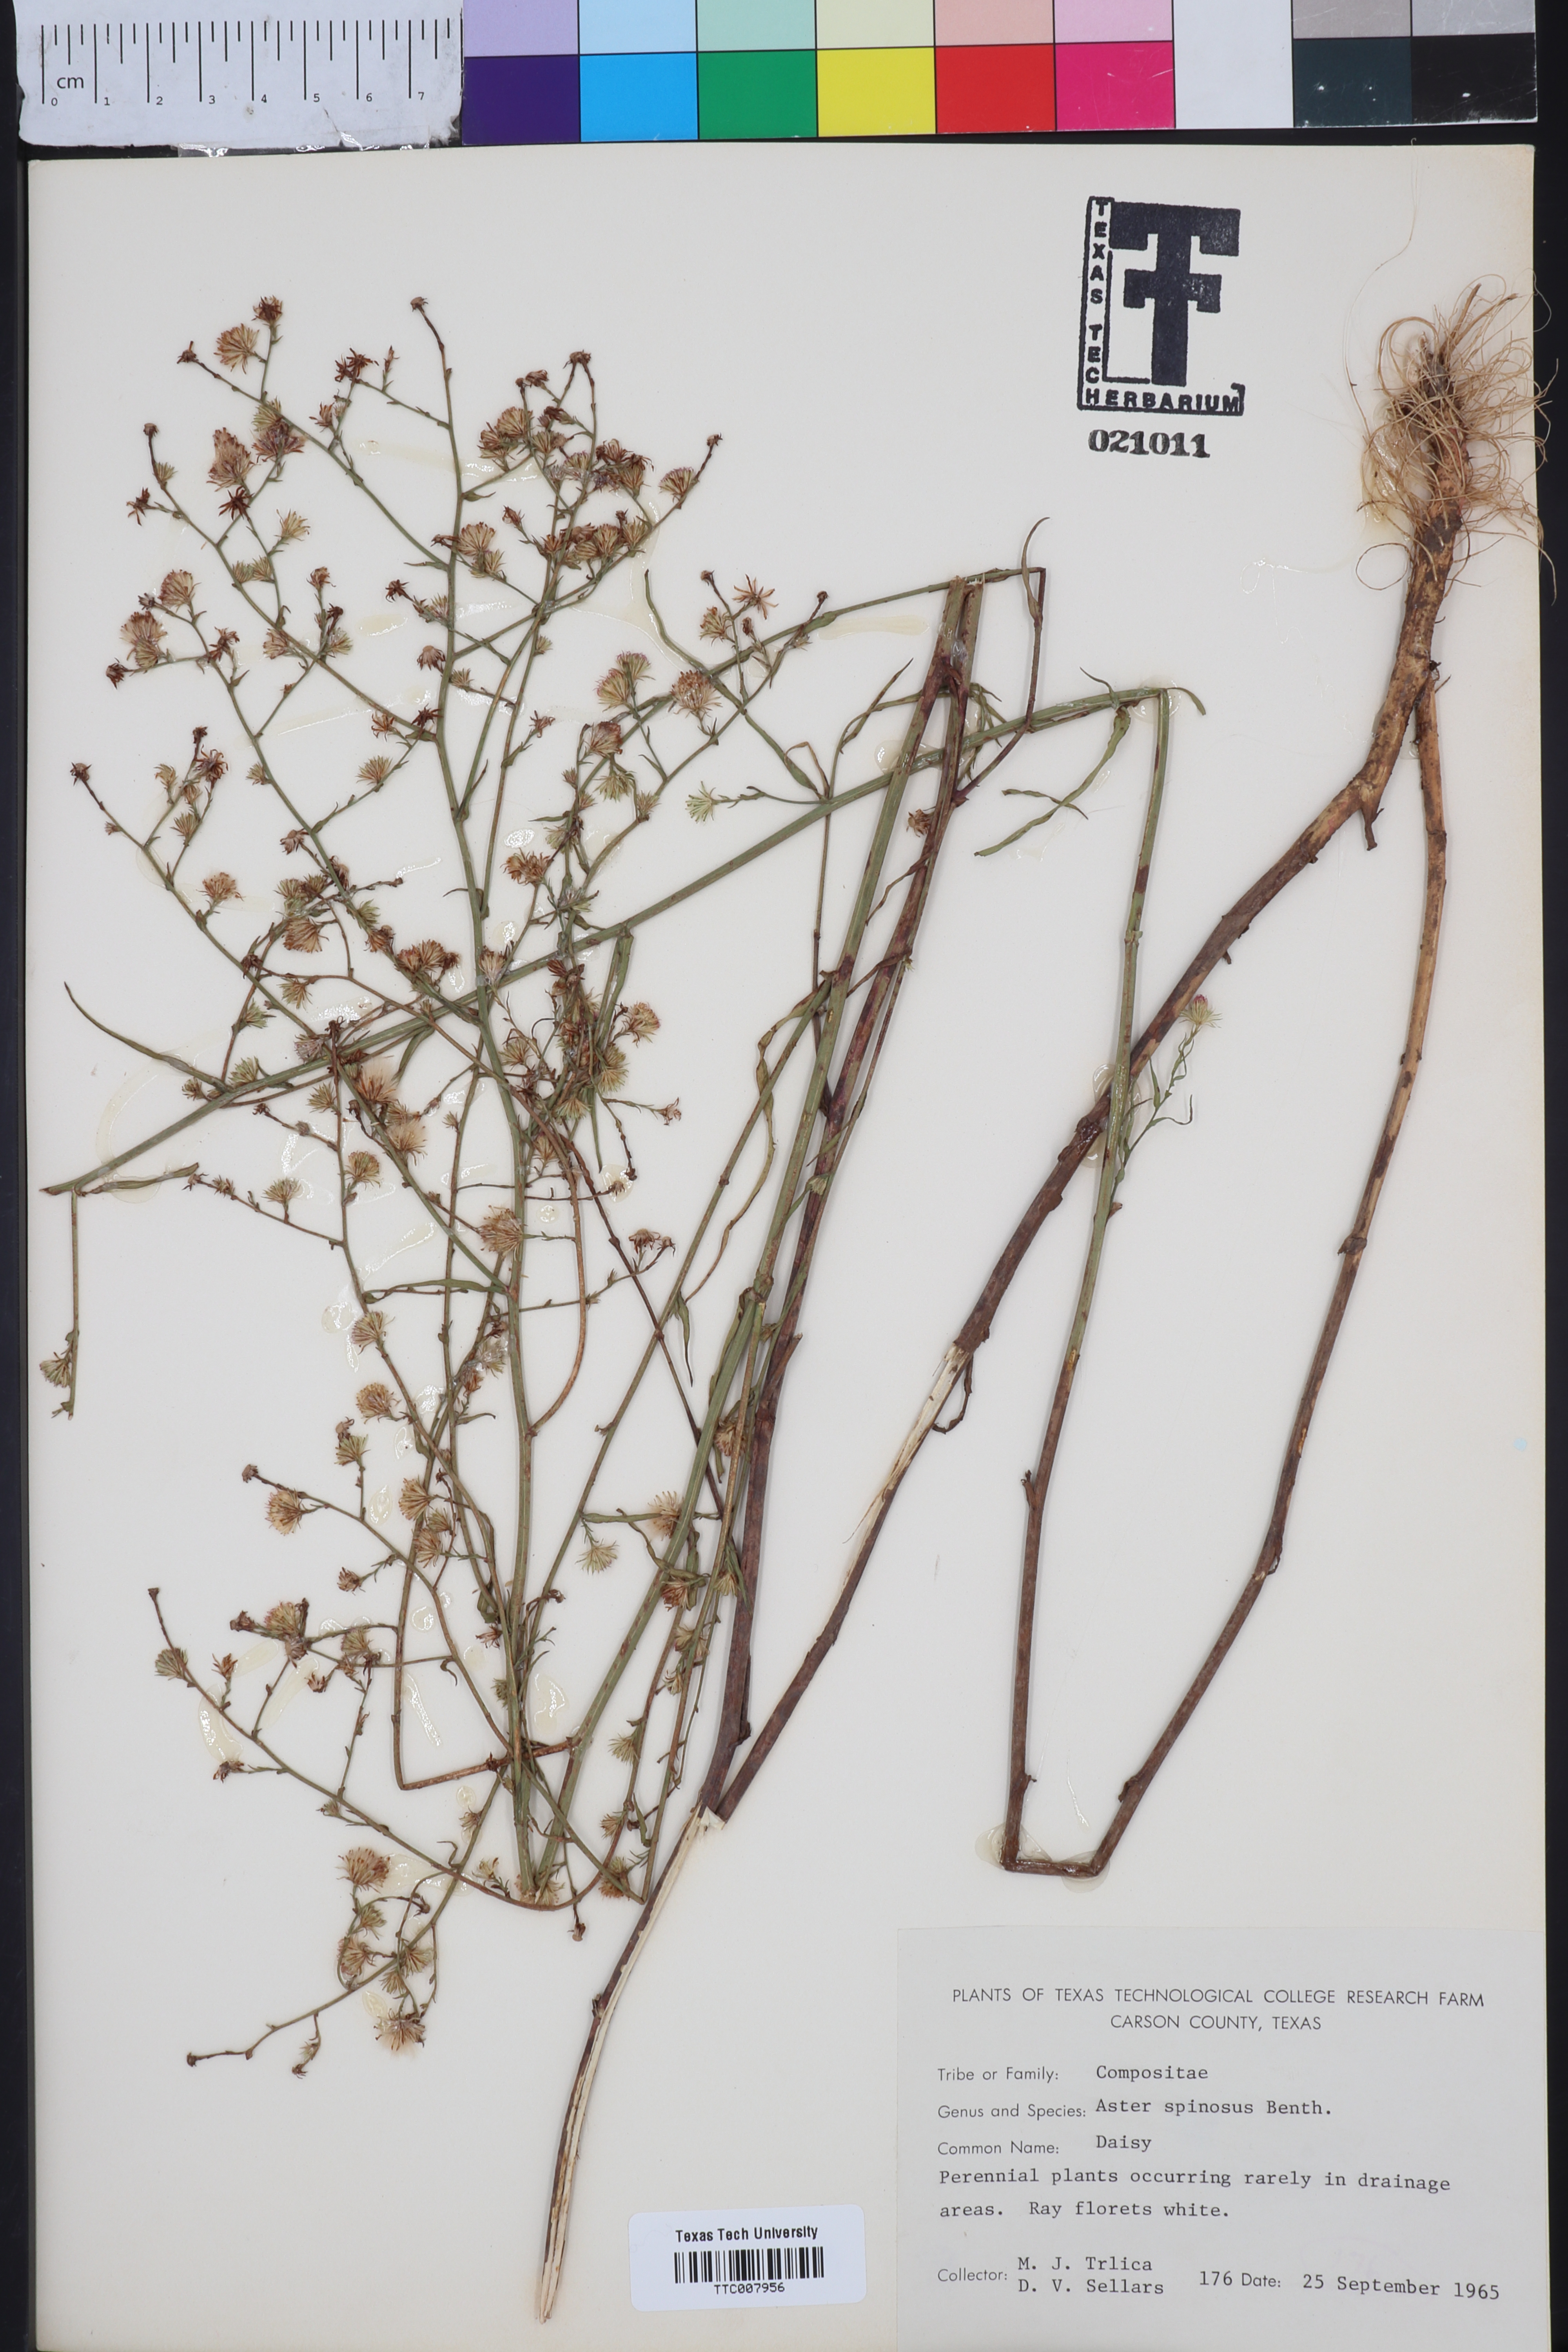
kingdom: Plantae
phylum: Tracheophyta
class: Magnoliopsida
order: Asterales
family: Asteraceae
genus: Chloracantha
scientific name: Chloracantha spinosa
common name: Mexican devilweed
